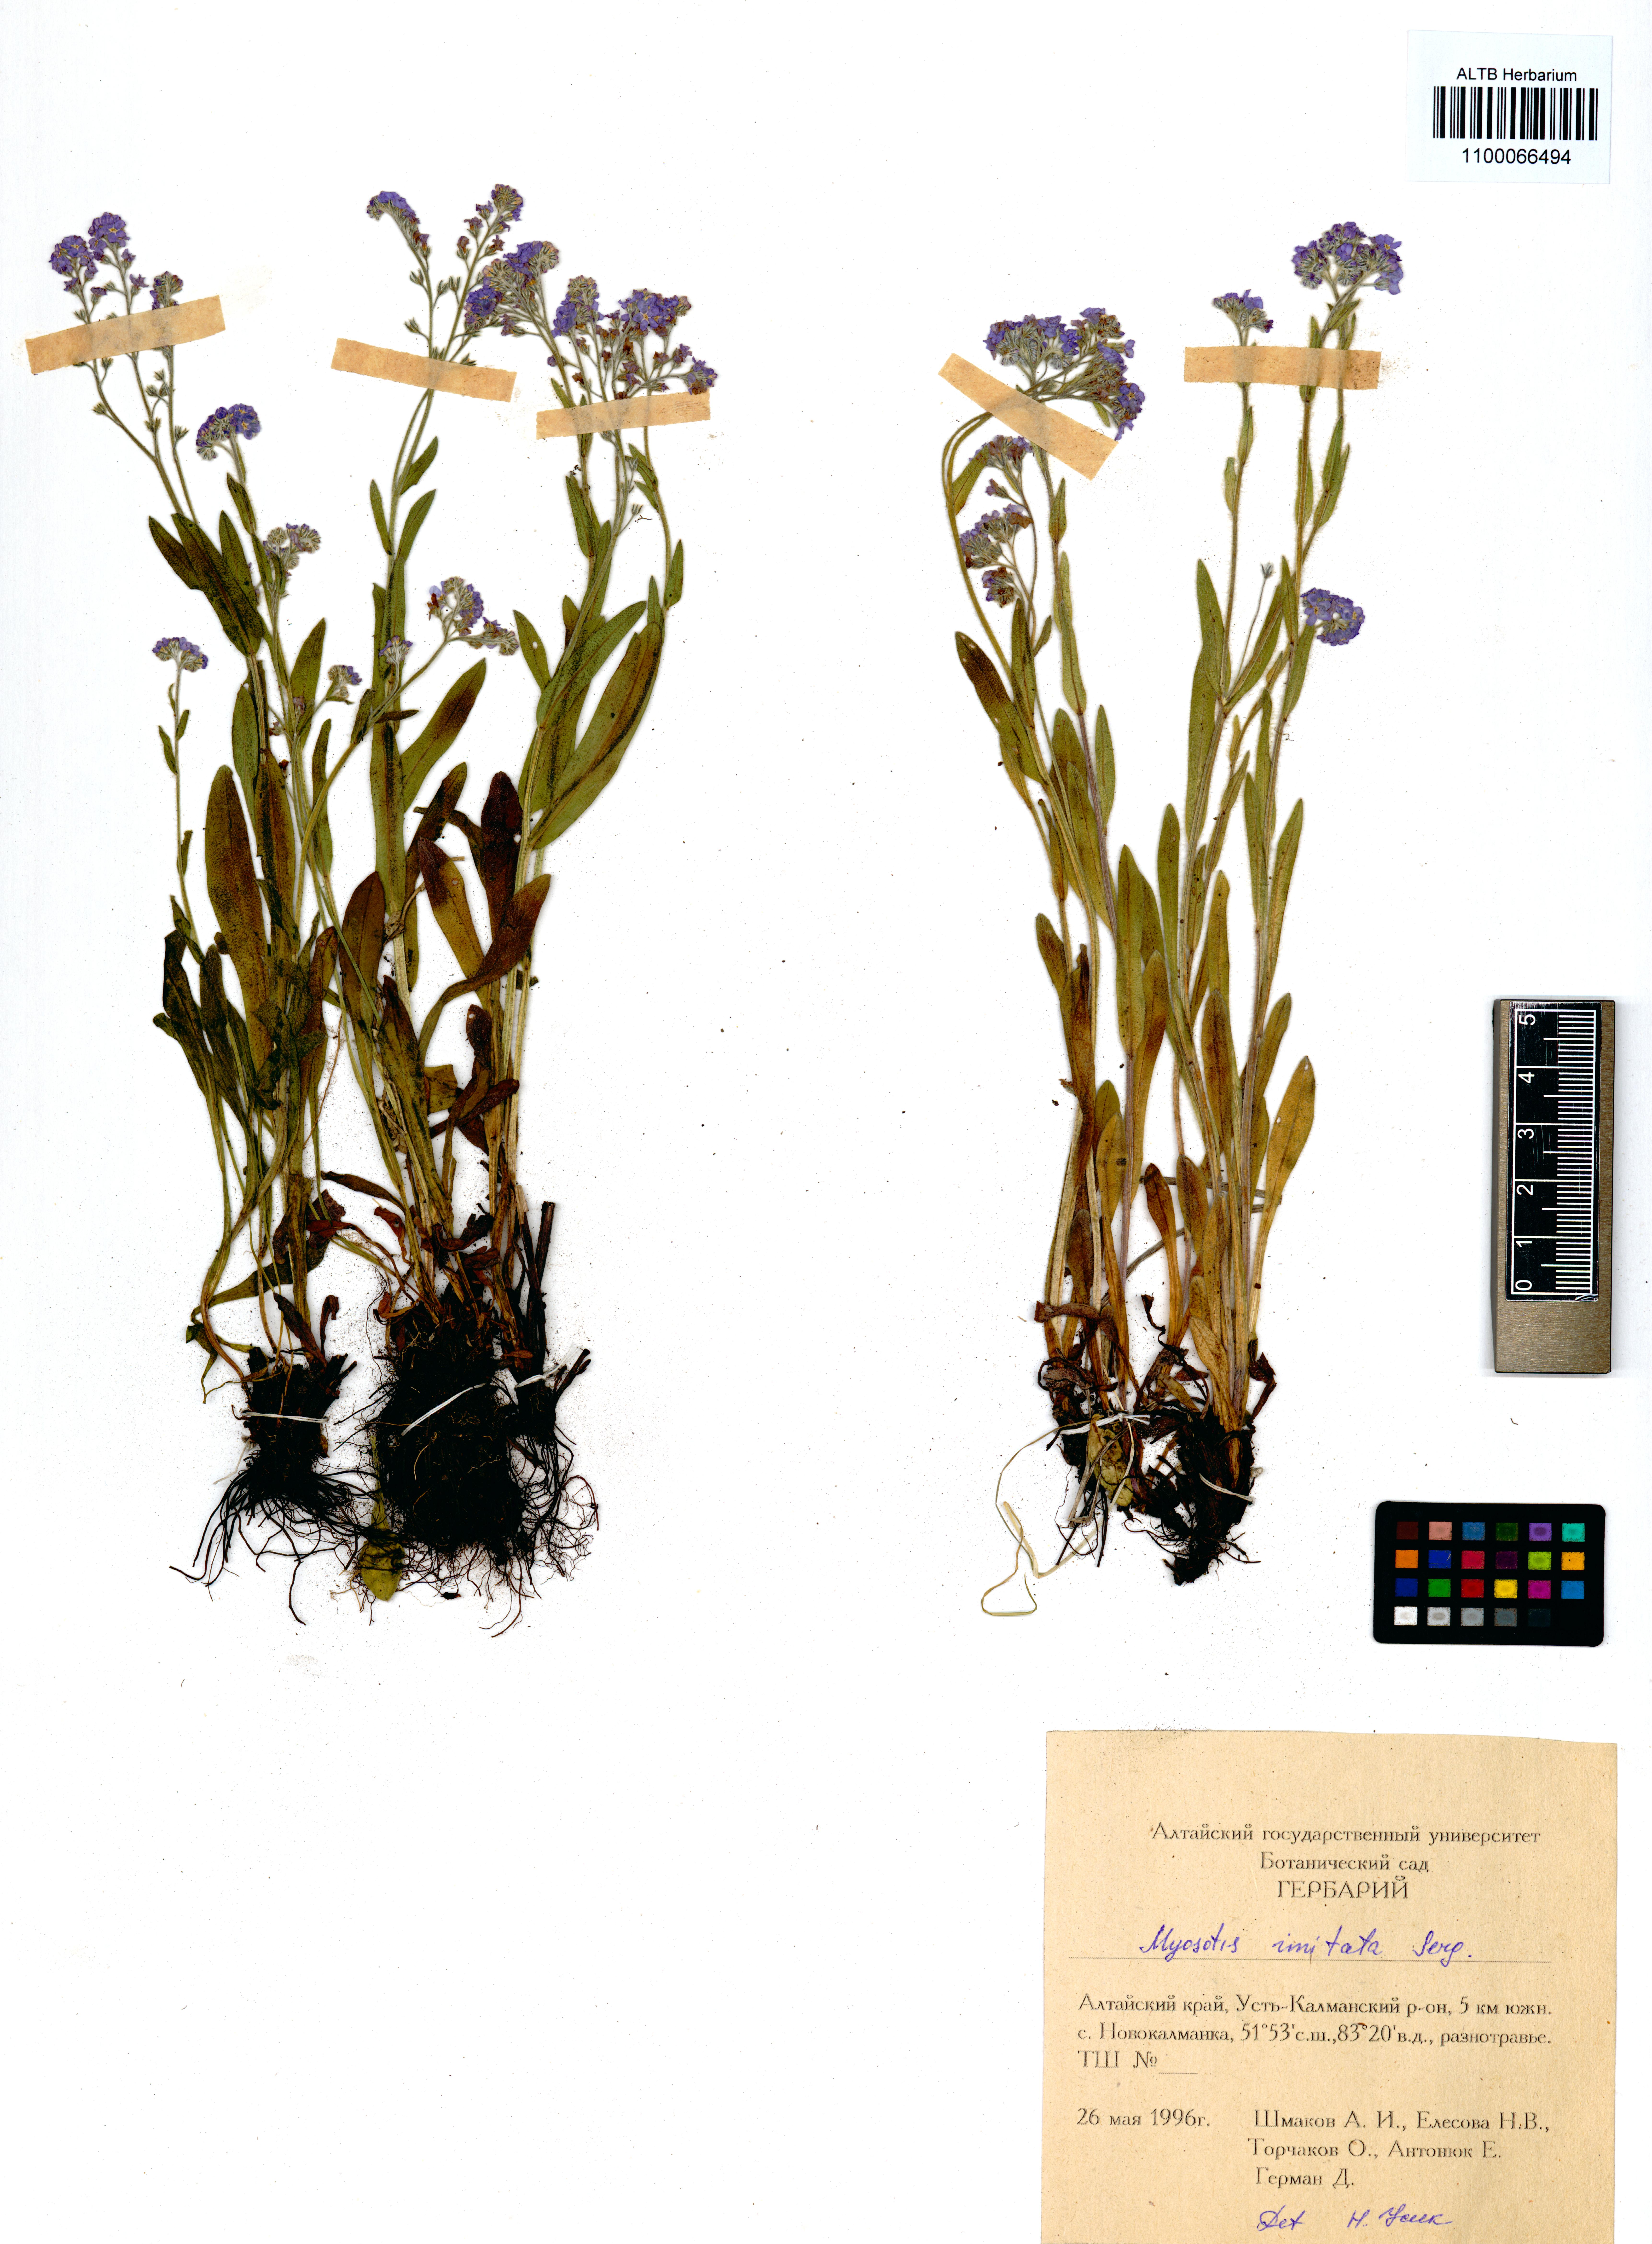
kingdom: Plantae
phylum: Tracheophyta
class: Magnoliopsida
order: Boraginales
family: Boraginaceae
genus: Myosotis
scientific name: Myosotis imitata
